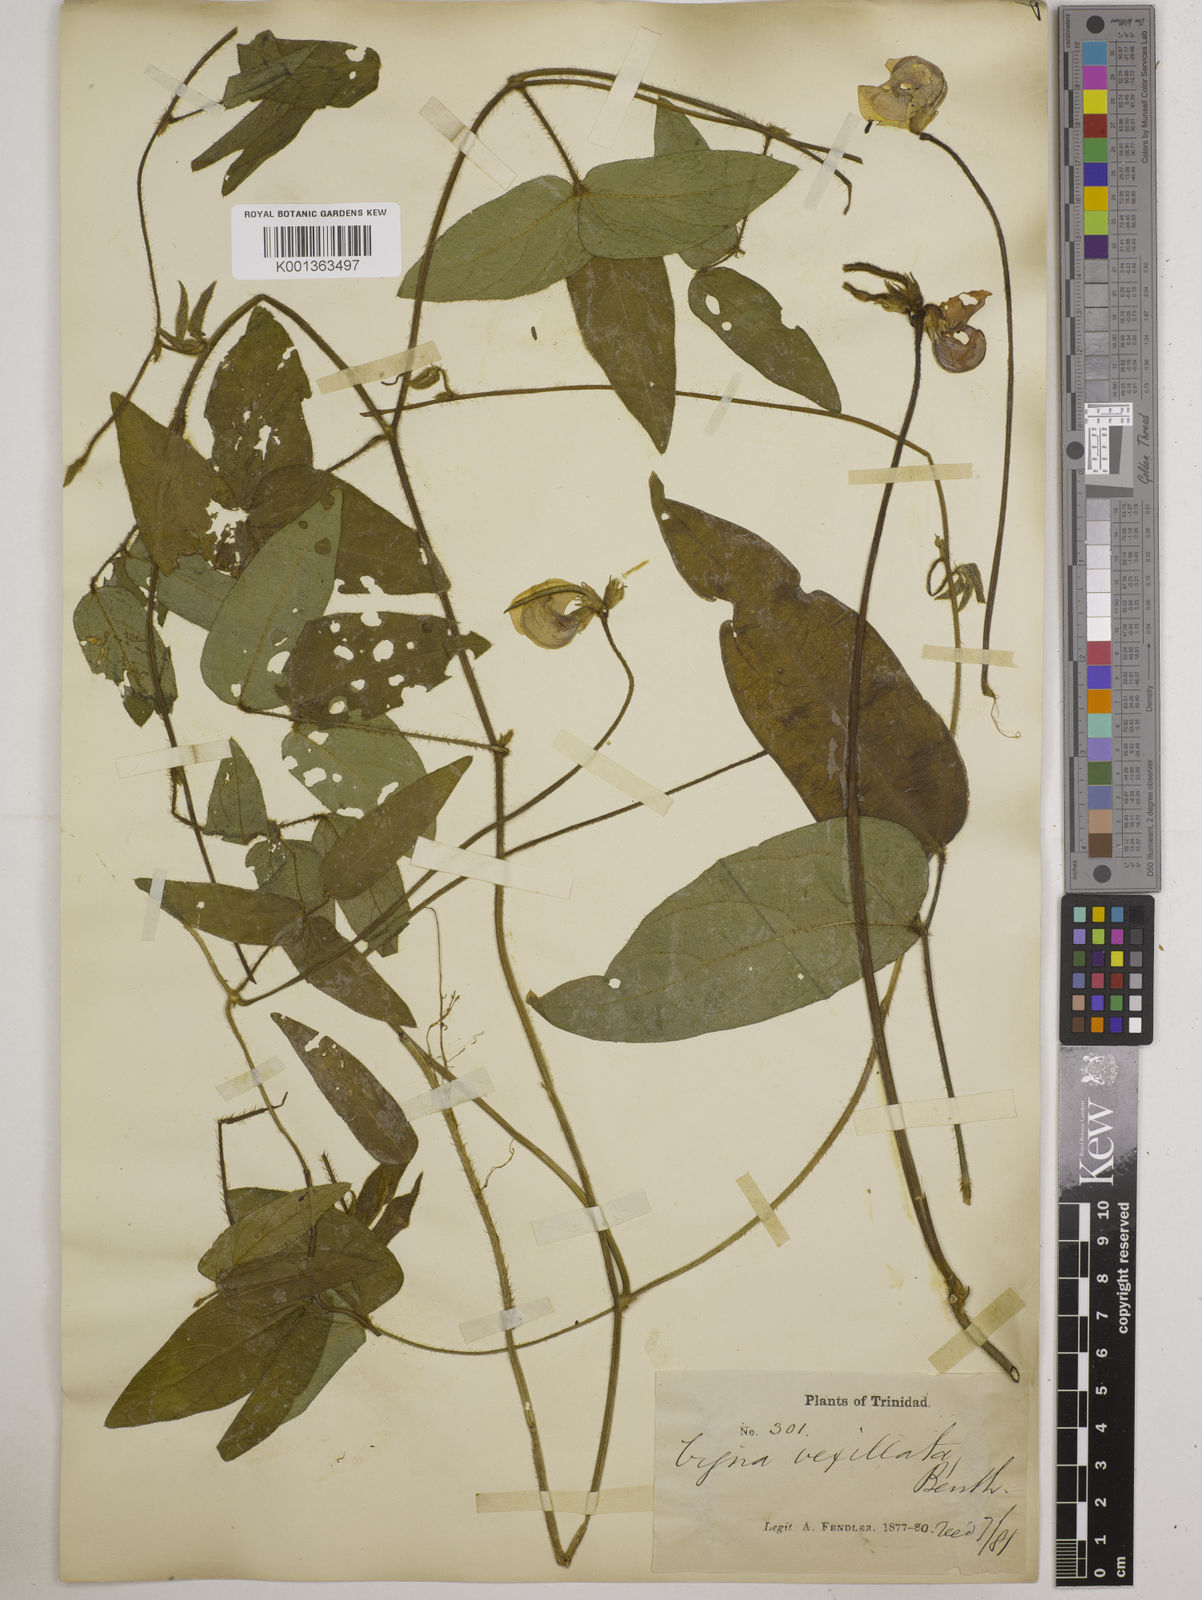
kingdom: Plantae
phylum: Tracheophyta
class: Magnoliopsida
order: Fabales
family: Fabaceae
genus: Vigna
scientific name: Vigna vexillata
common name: Zombi pea
